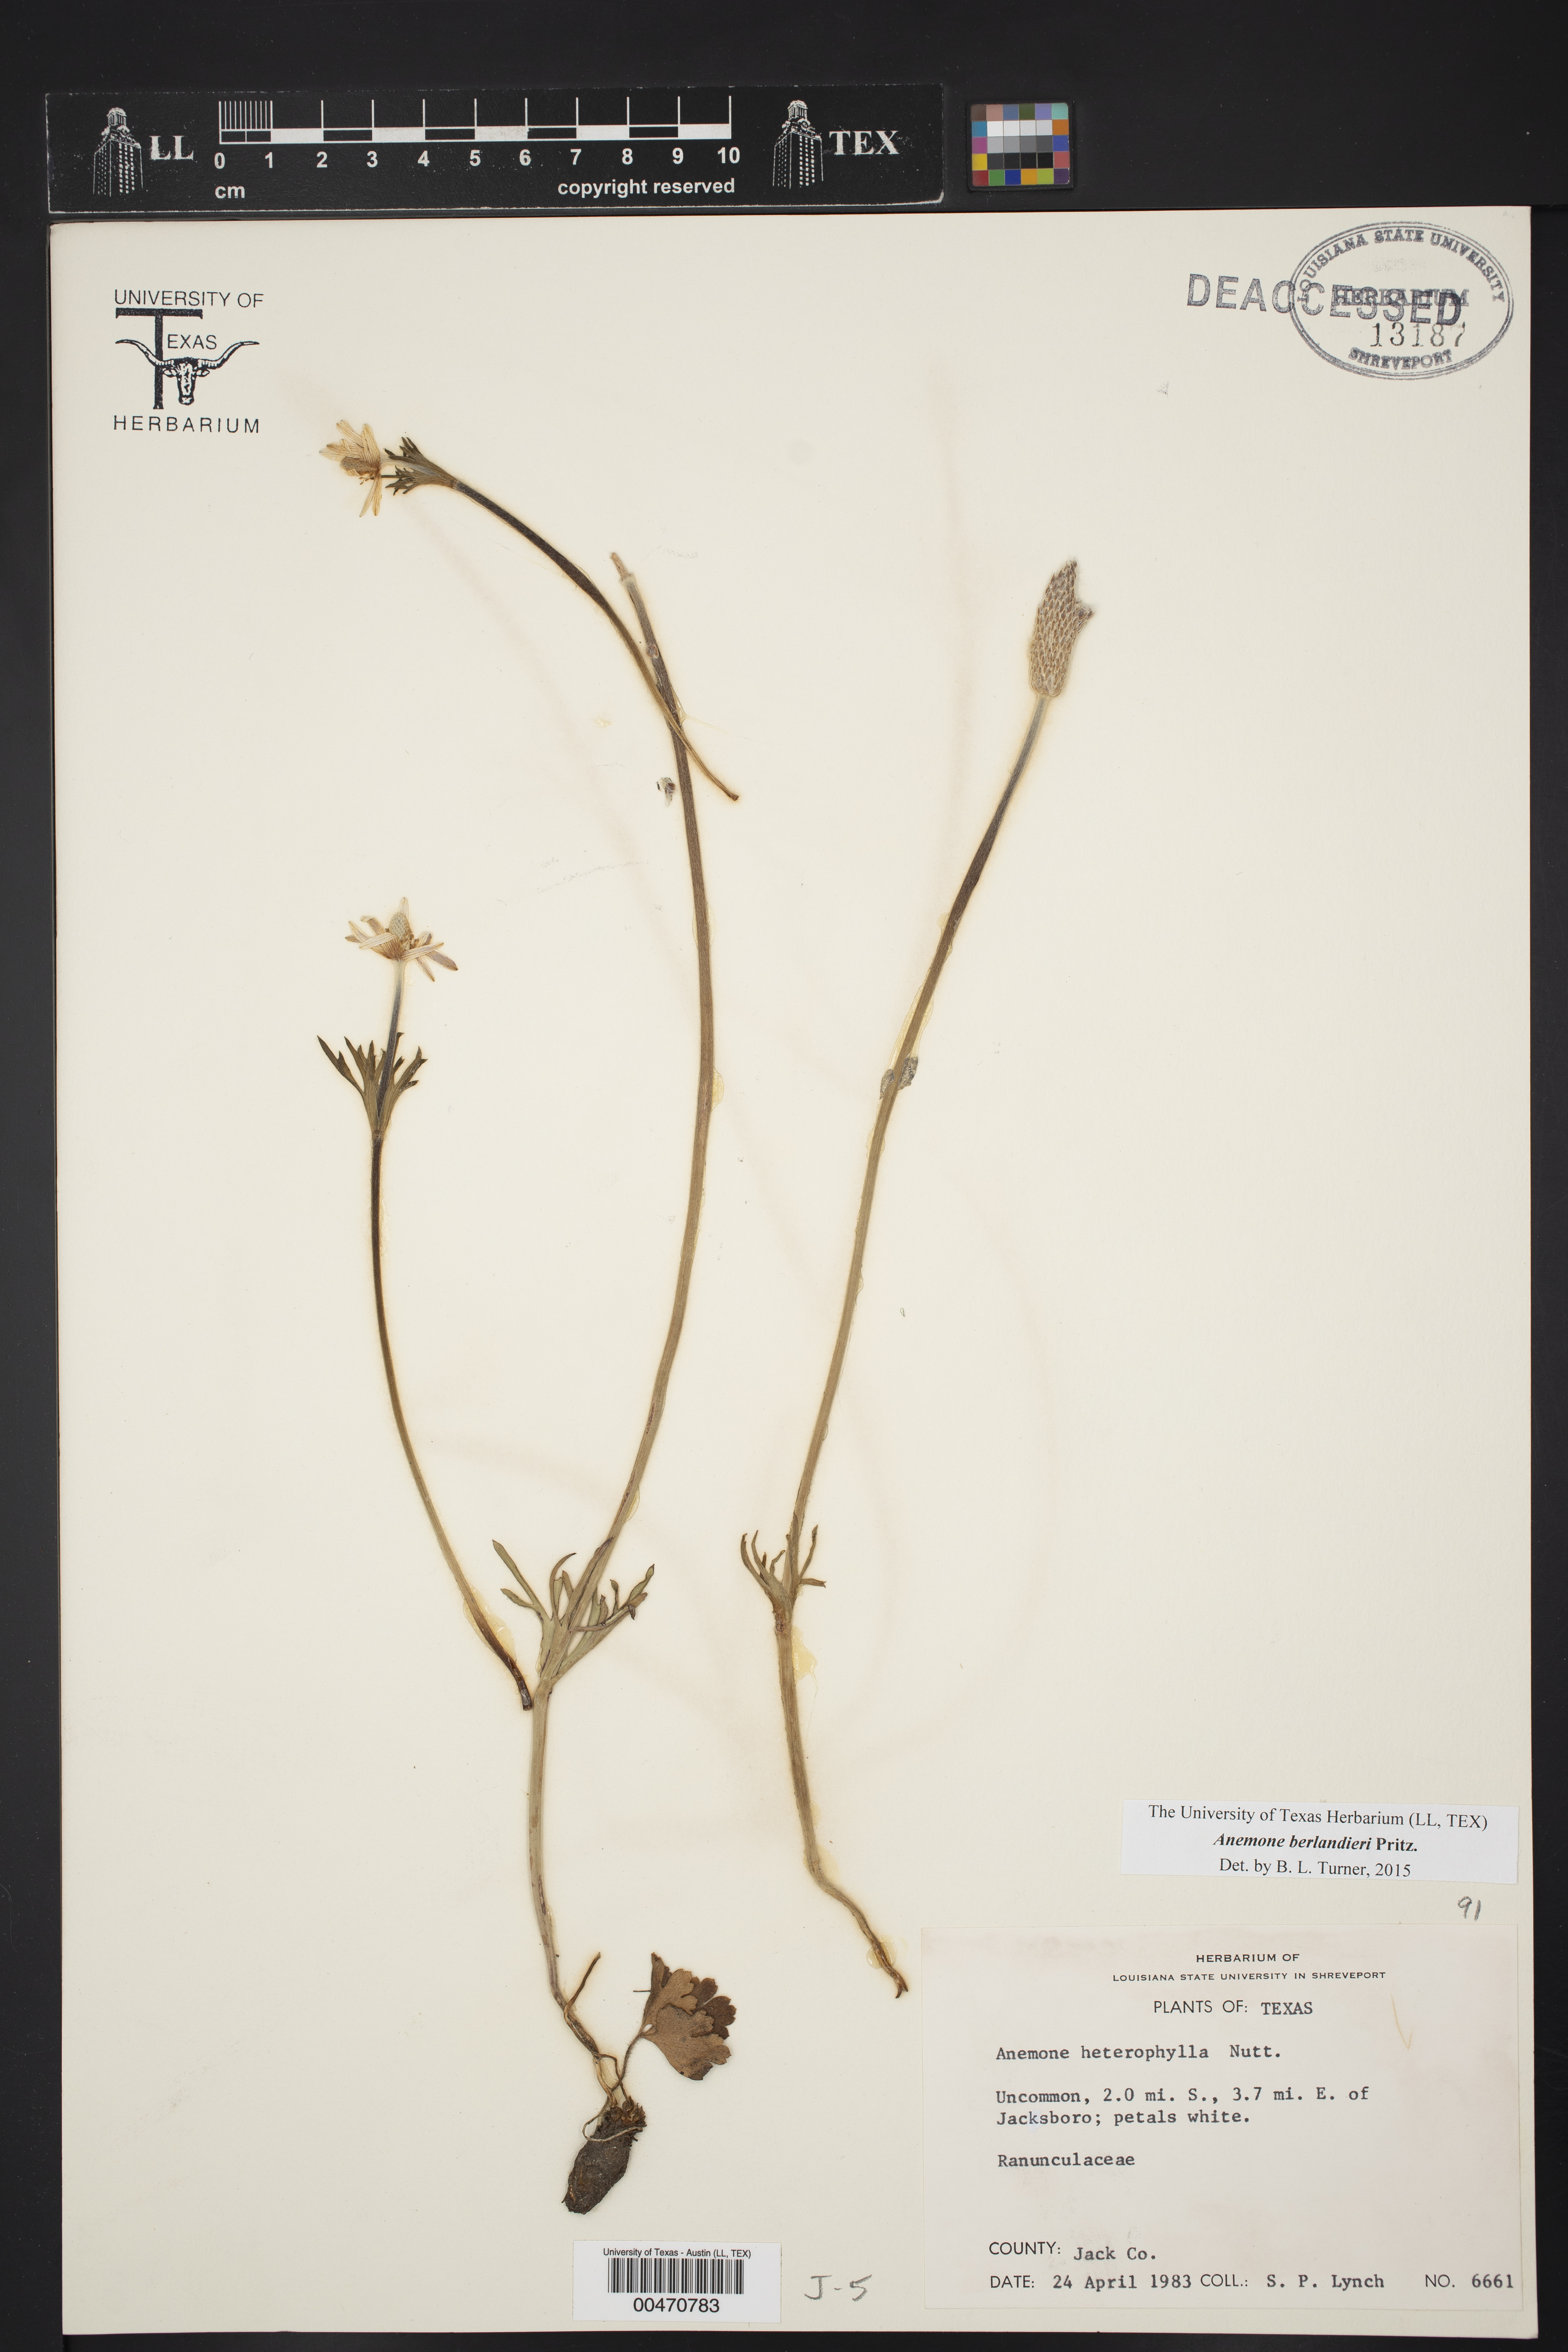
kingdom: Plantae
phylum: Tracheophyta
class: Magnoliopsida
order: Ranunculales
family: Ranunculaceae
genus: Anemone
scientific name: Anemone berlandieri
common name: Ten-petal anemone
